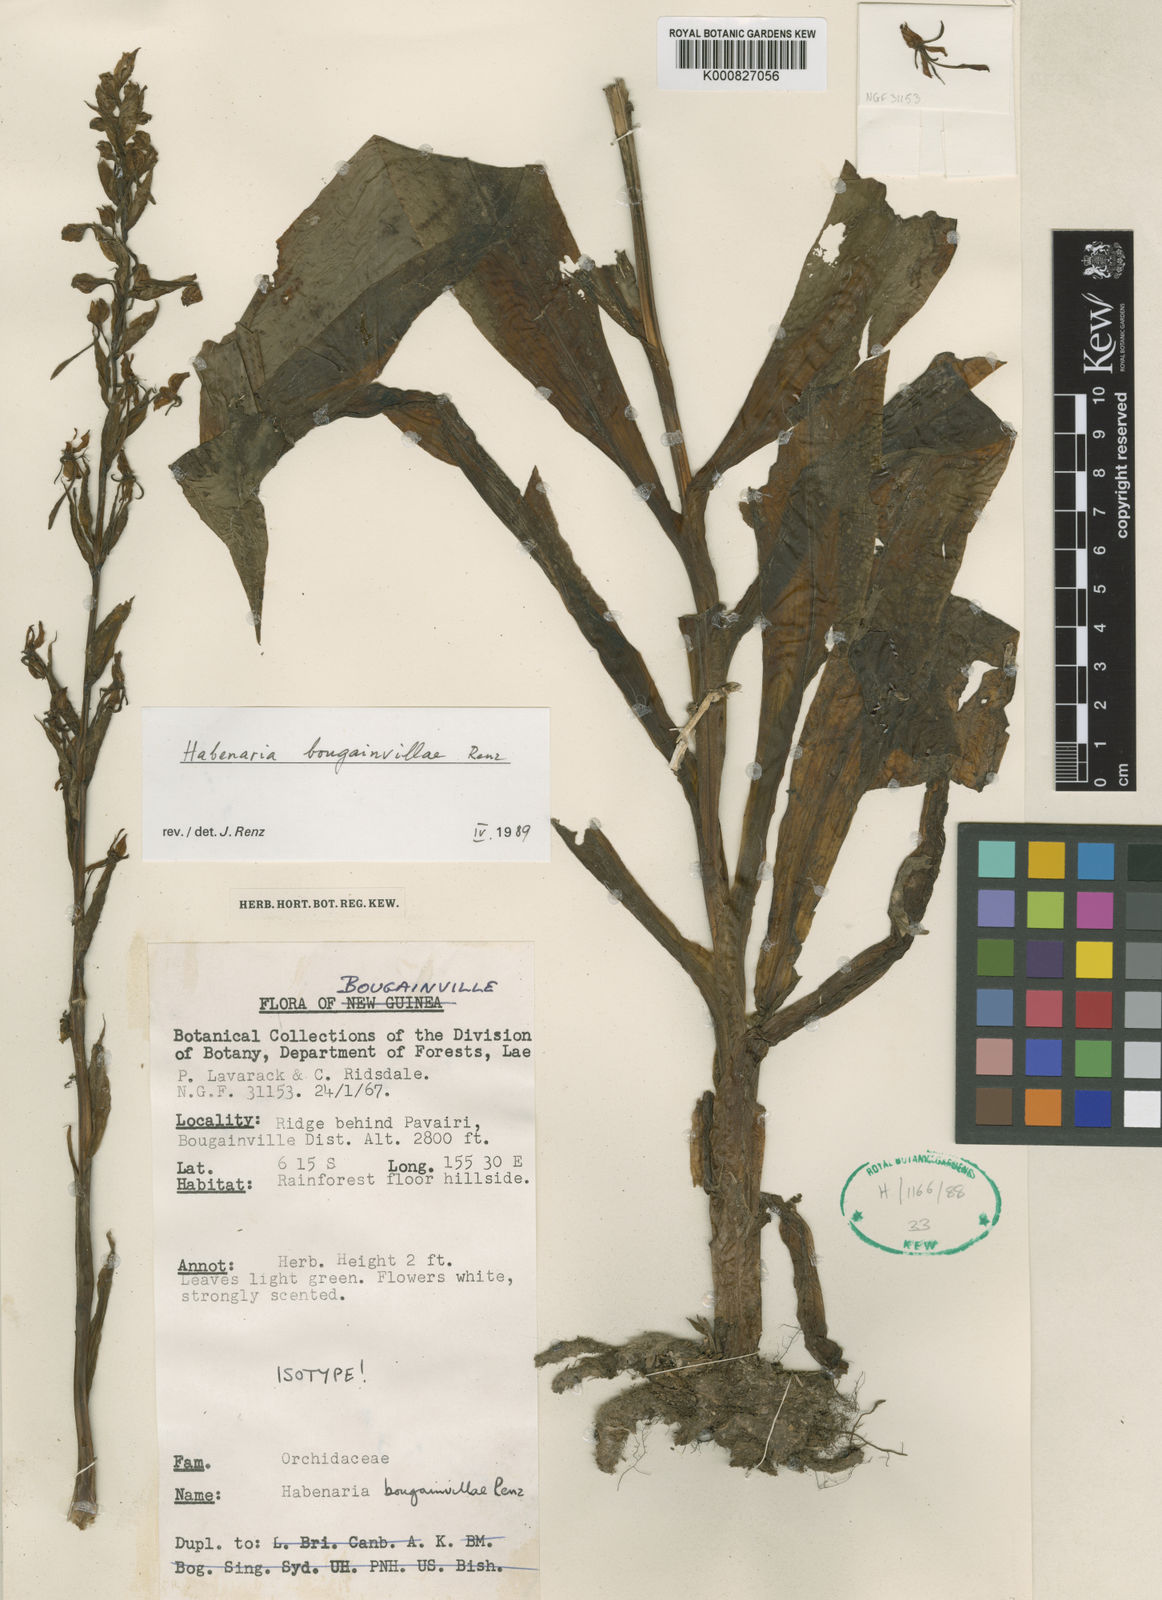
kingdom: Plantae
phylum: Tracheophyta
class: Liliopsida
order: Asparagales
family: Orchidaceae
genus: Habenaria
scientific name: Habenaria bougainvilleae
